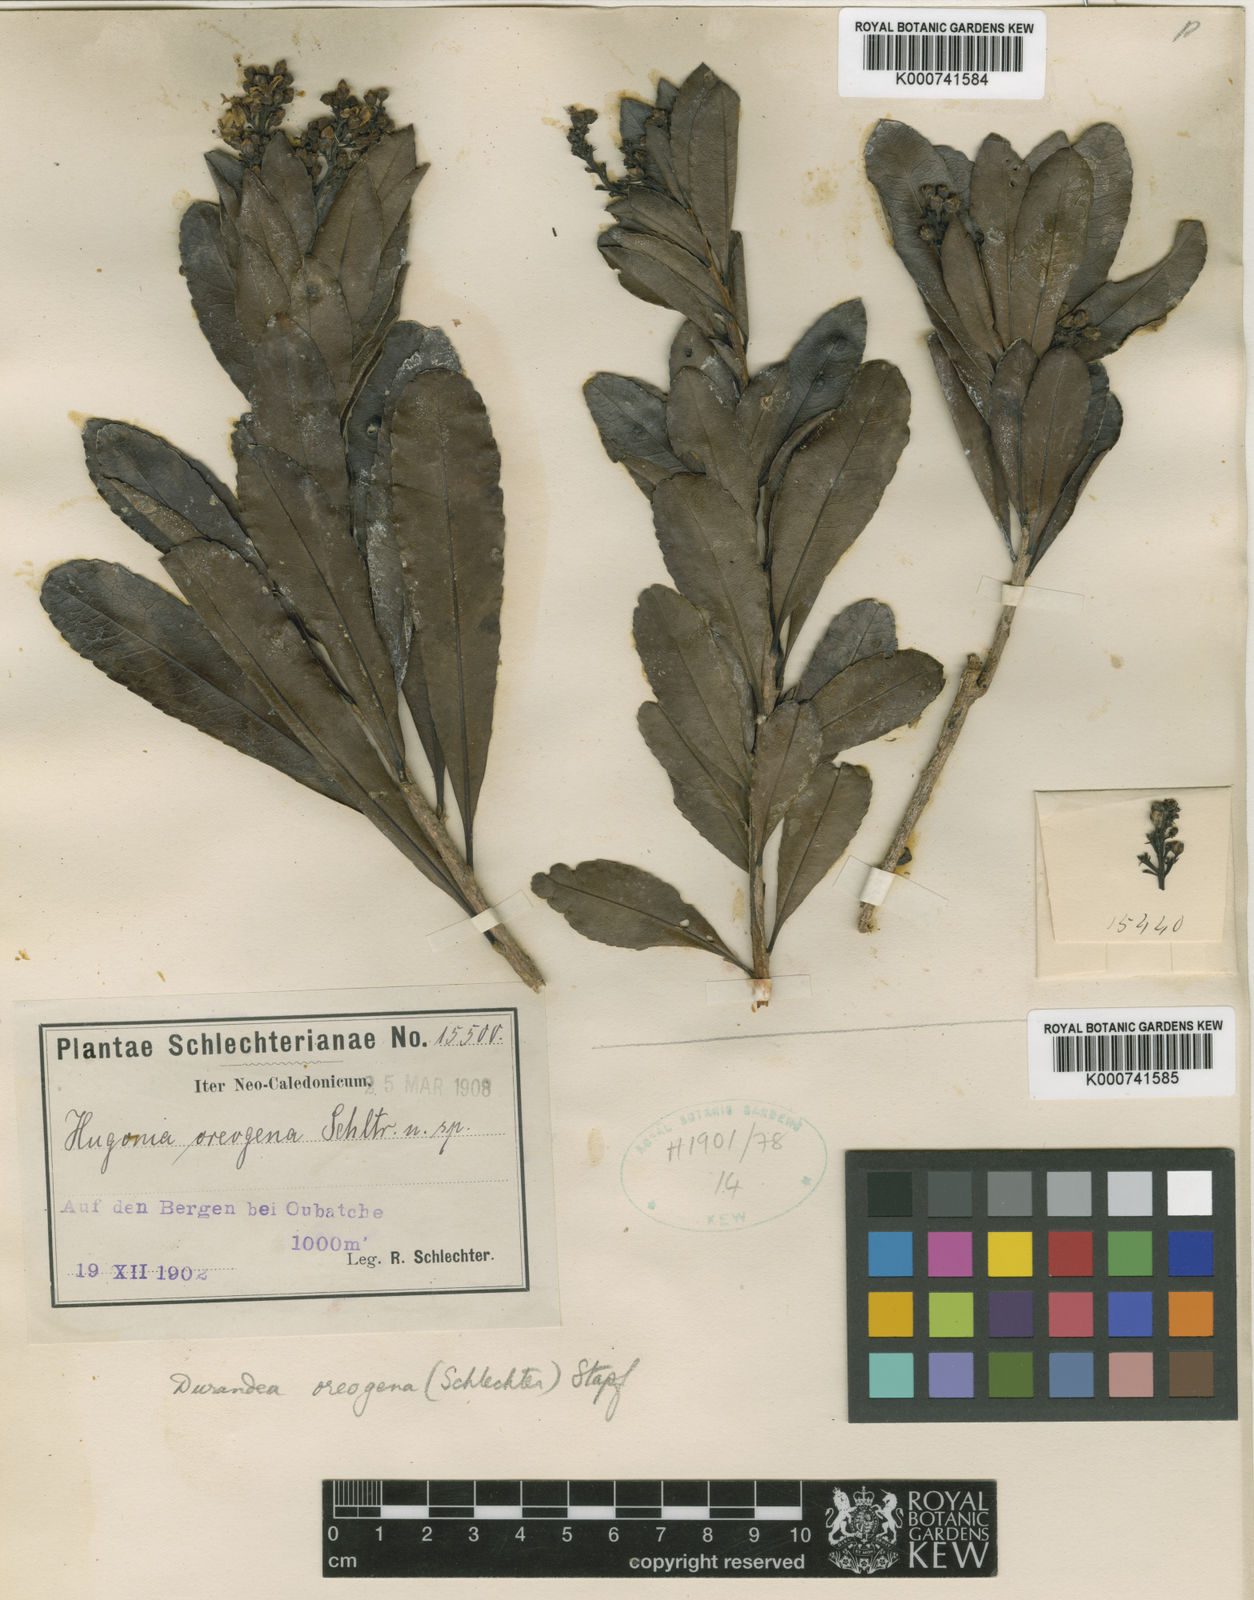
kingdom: Plantae
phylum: Tracheophyta
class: Magnoliopsida
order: Malpighiales
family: Linaceae
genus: Durandea
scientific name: Durandea oreogena
